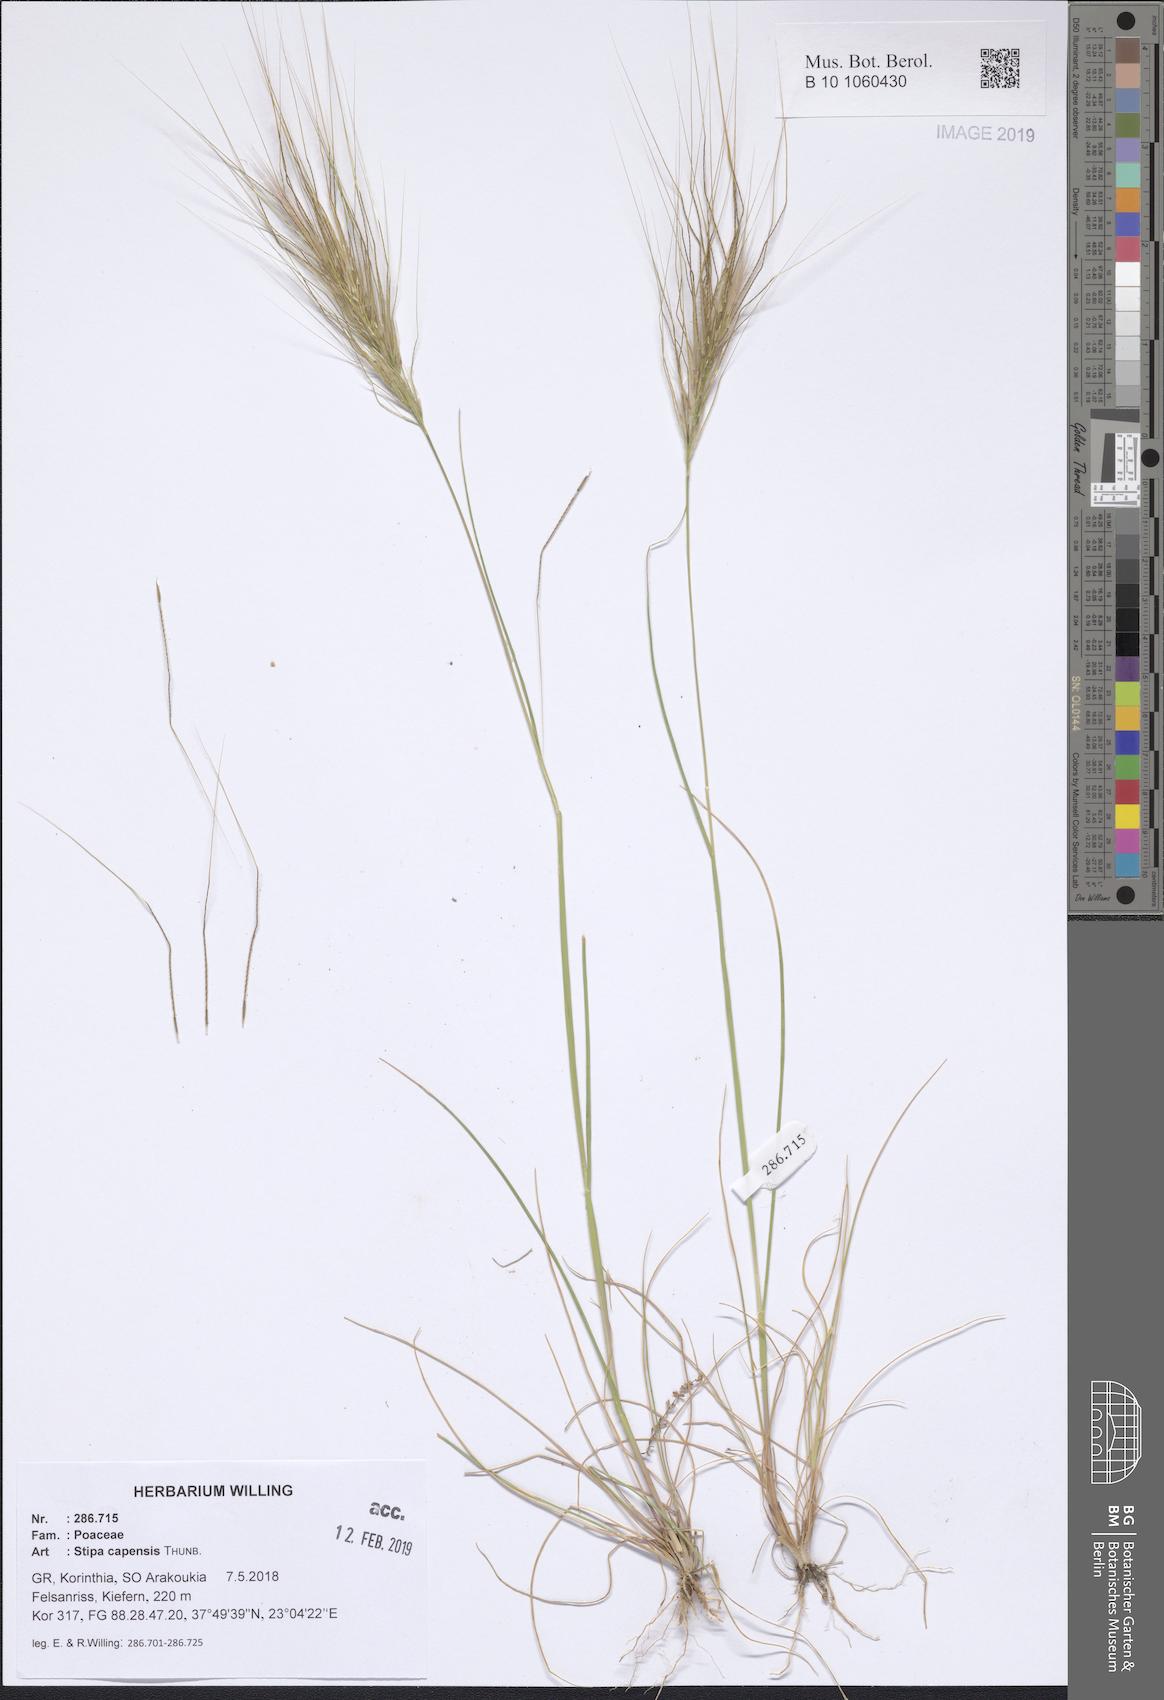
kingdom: Plantae
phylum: Tracheophyta
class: Liliopsida
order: Poales
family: Poaceae
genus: Stipellula
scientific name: Stipellula capensis
